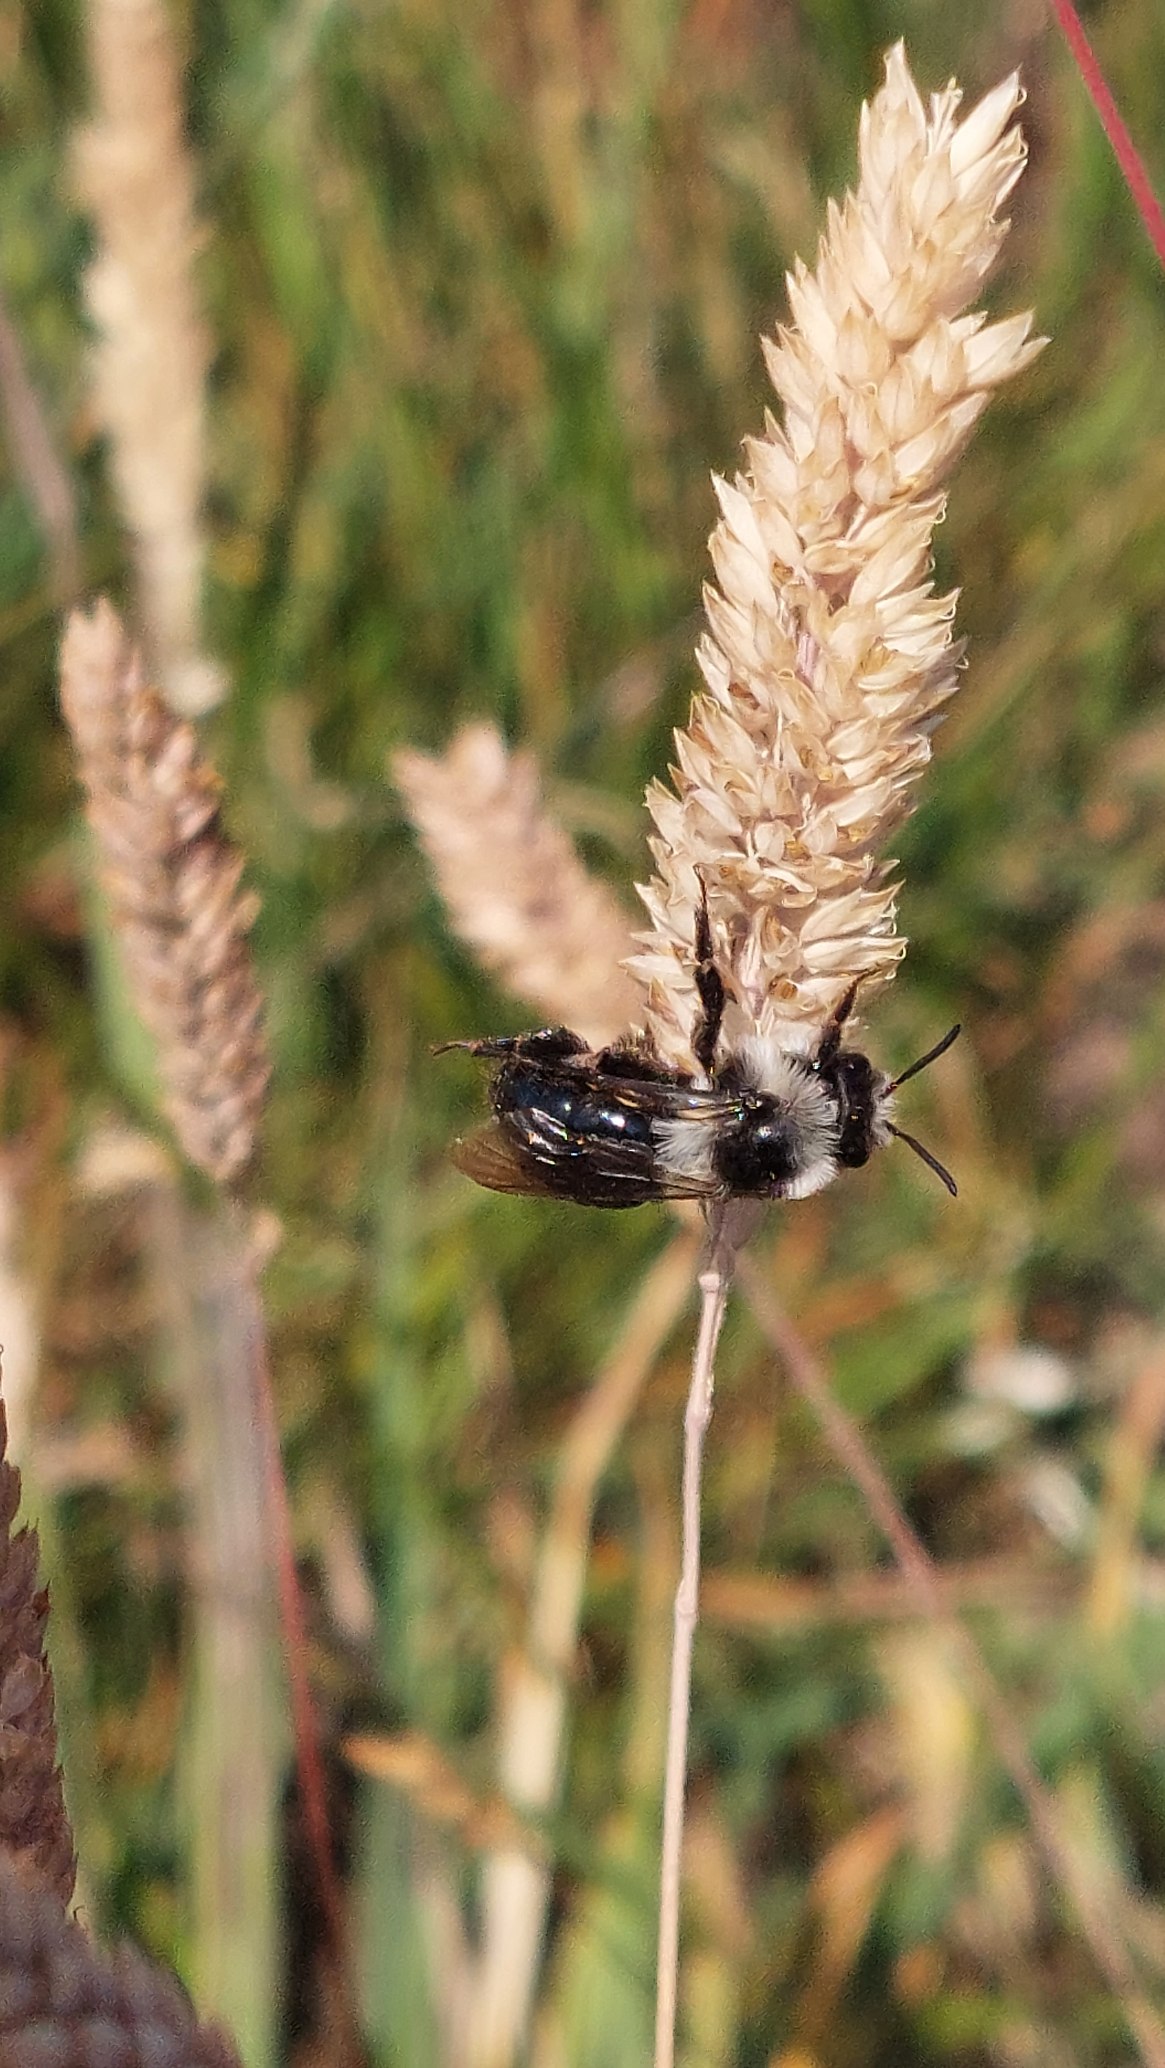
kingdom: Animalia
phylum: Arthropoda
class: Insecta
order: Hymenoptera
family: Andrenidae
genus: Andrena
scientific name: Andrena cineraria
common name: Sorthvid jordbi
